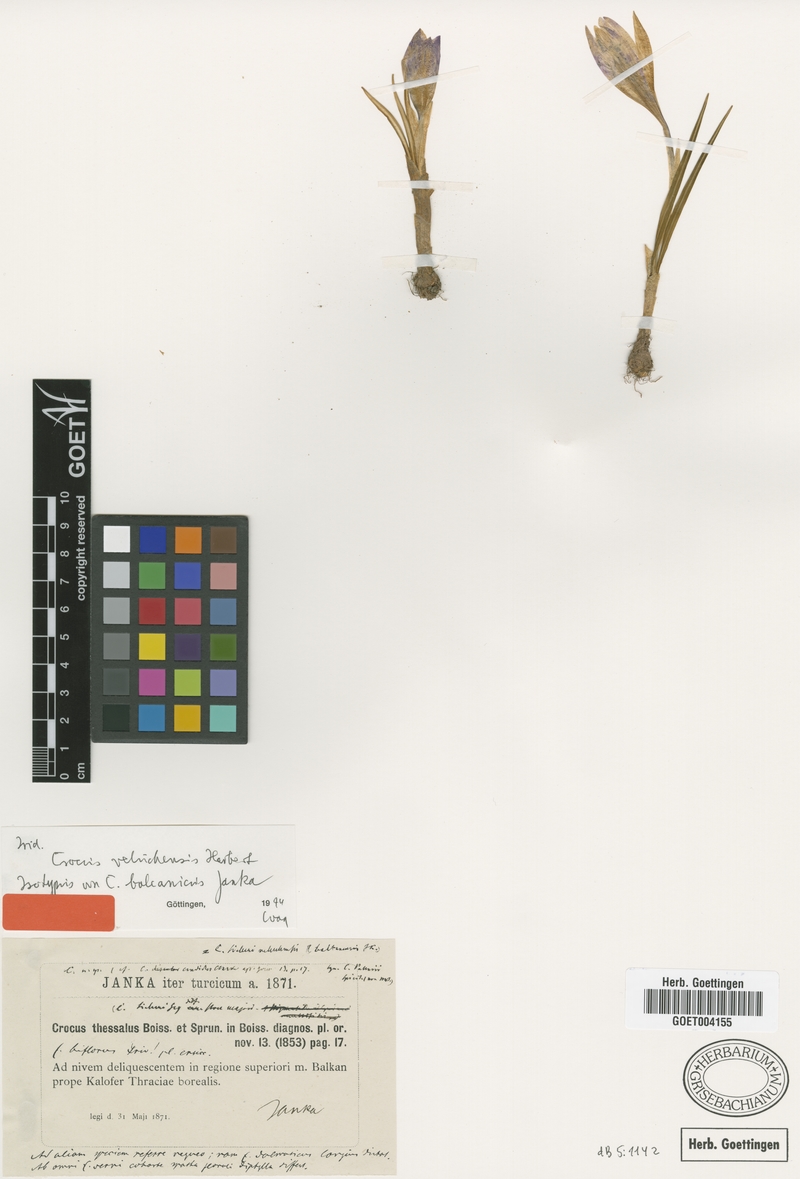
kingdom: Plantae
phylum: Tracheophyta
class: Liliopsida
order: Asparagales
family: Iridaceae
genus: Crocus
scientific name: Crocus veluchensis
